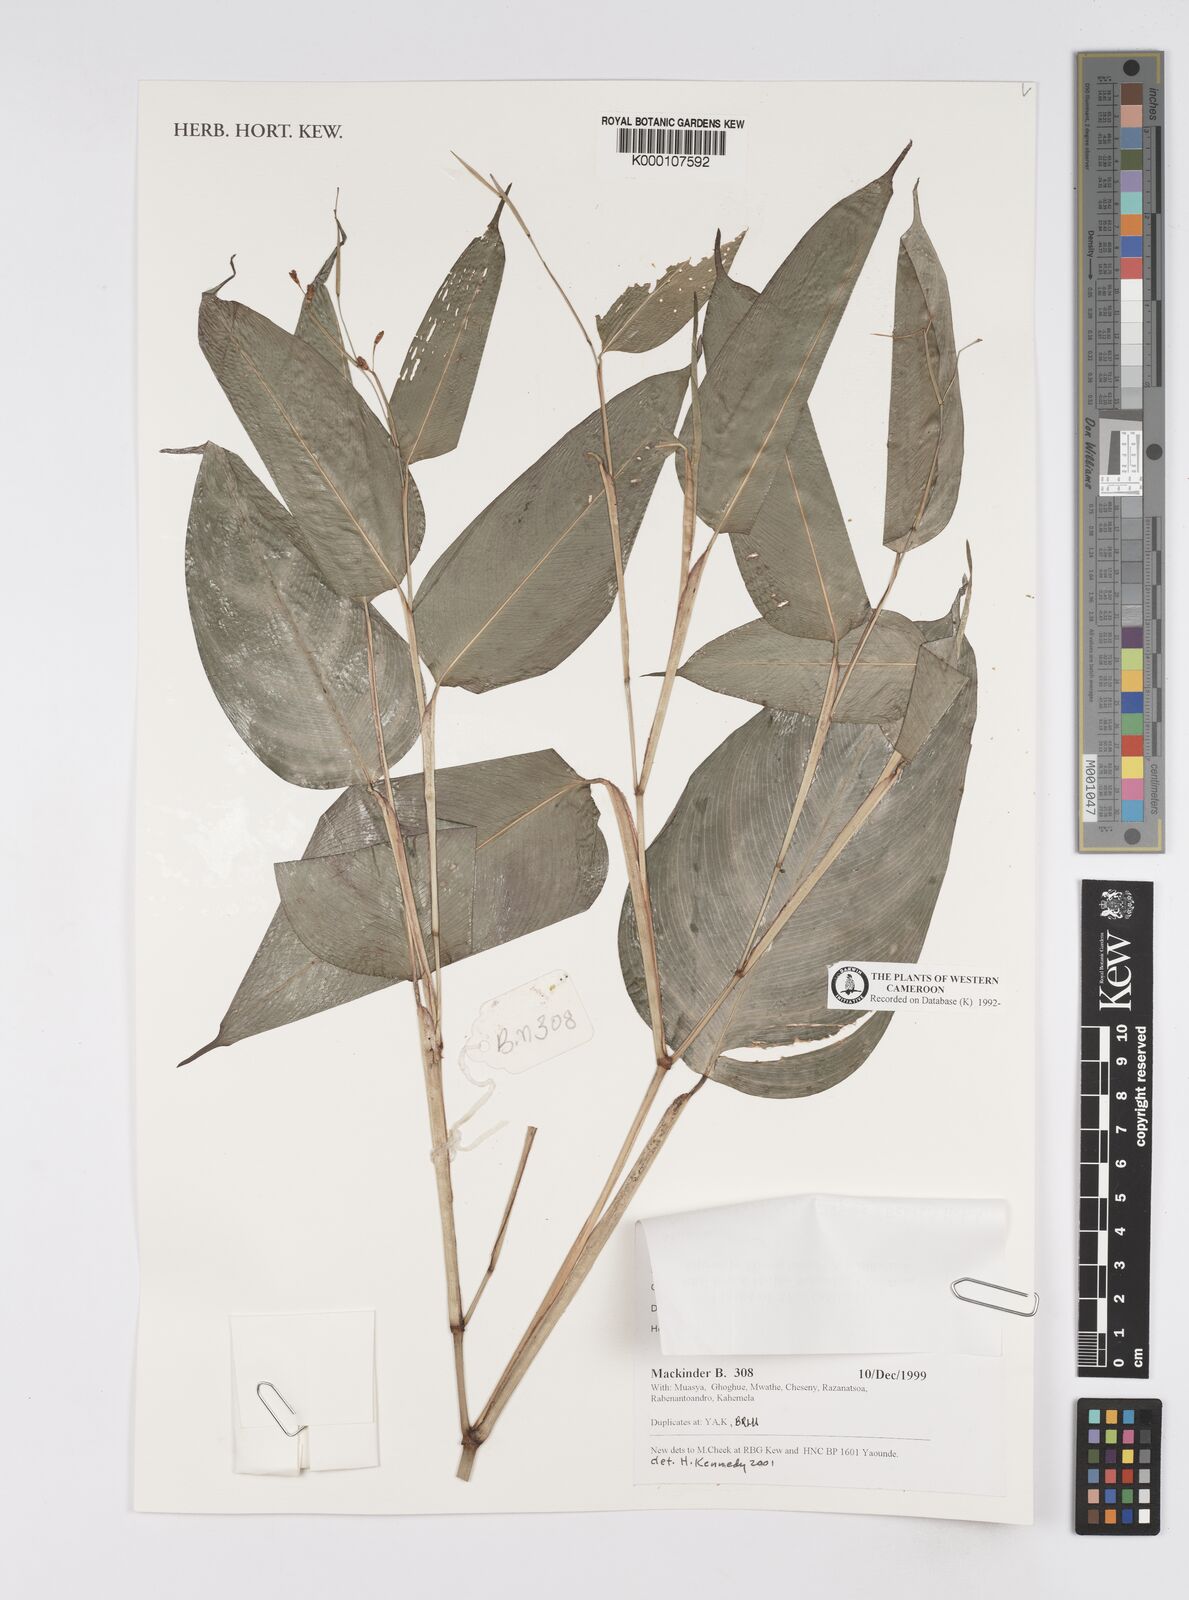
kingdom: Plantae
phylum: Tracheophyta
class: Liliopsida
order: Zingiberales
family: Marantaceae
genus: Marantochloa
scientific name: Marantochloa filipes
